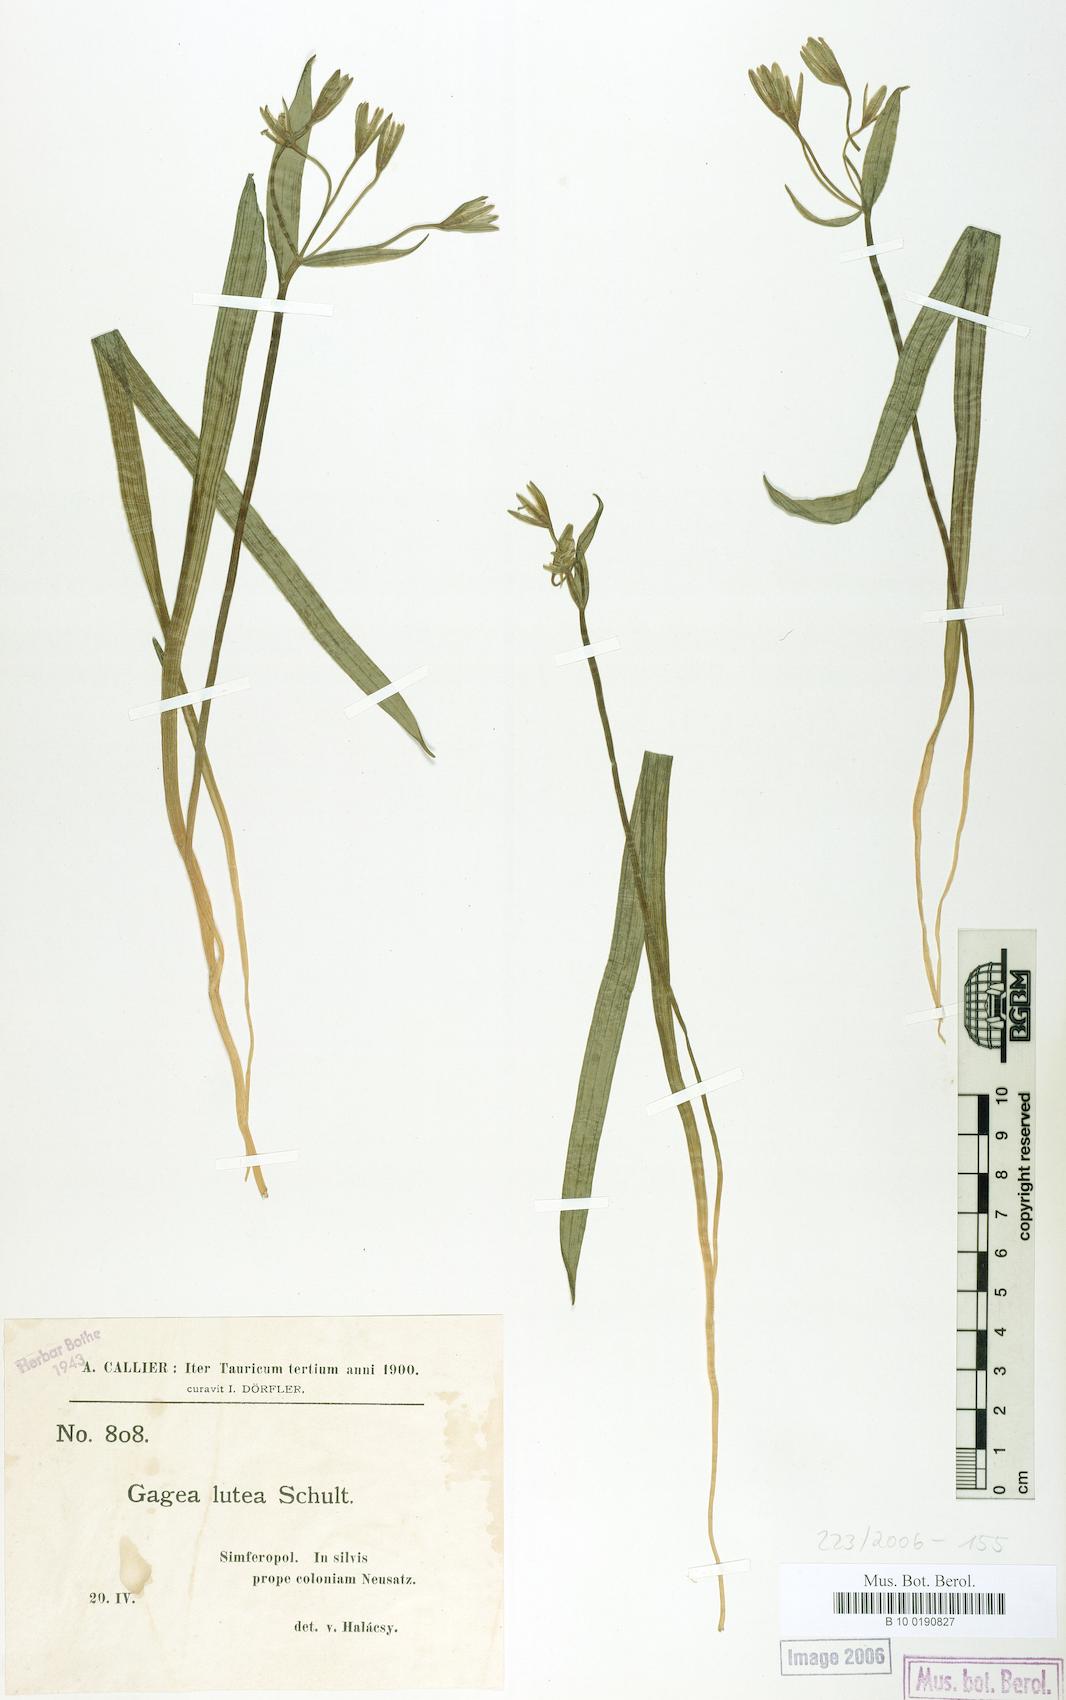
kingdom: Plantae
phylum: Tracheophyta
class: Liliopsida
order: Liliales
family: Liliaceae
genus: Gagea
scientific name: Gagea lutea
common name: Yellow star-of-bethlehem
